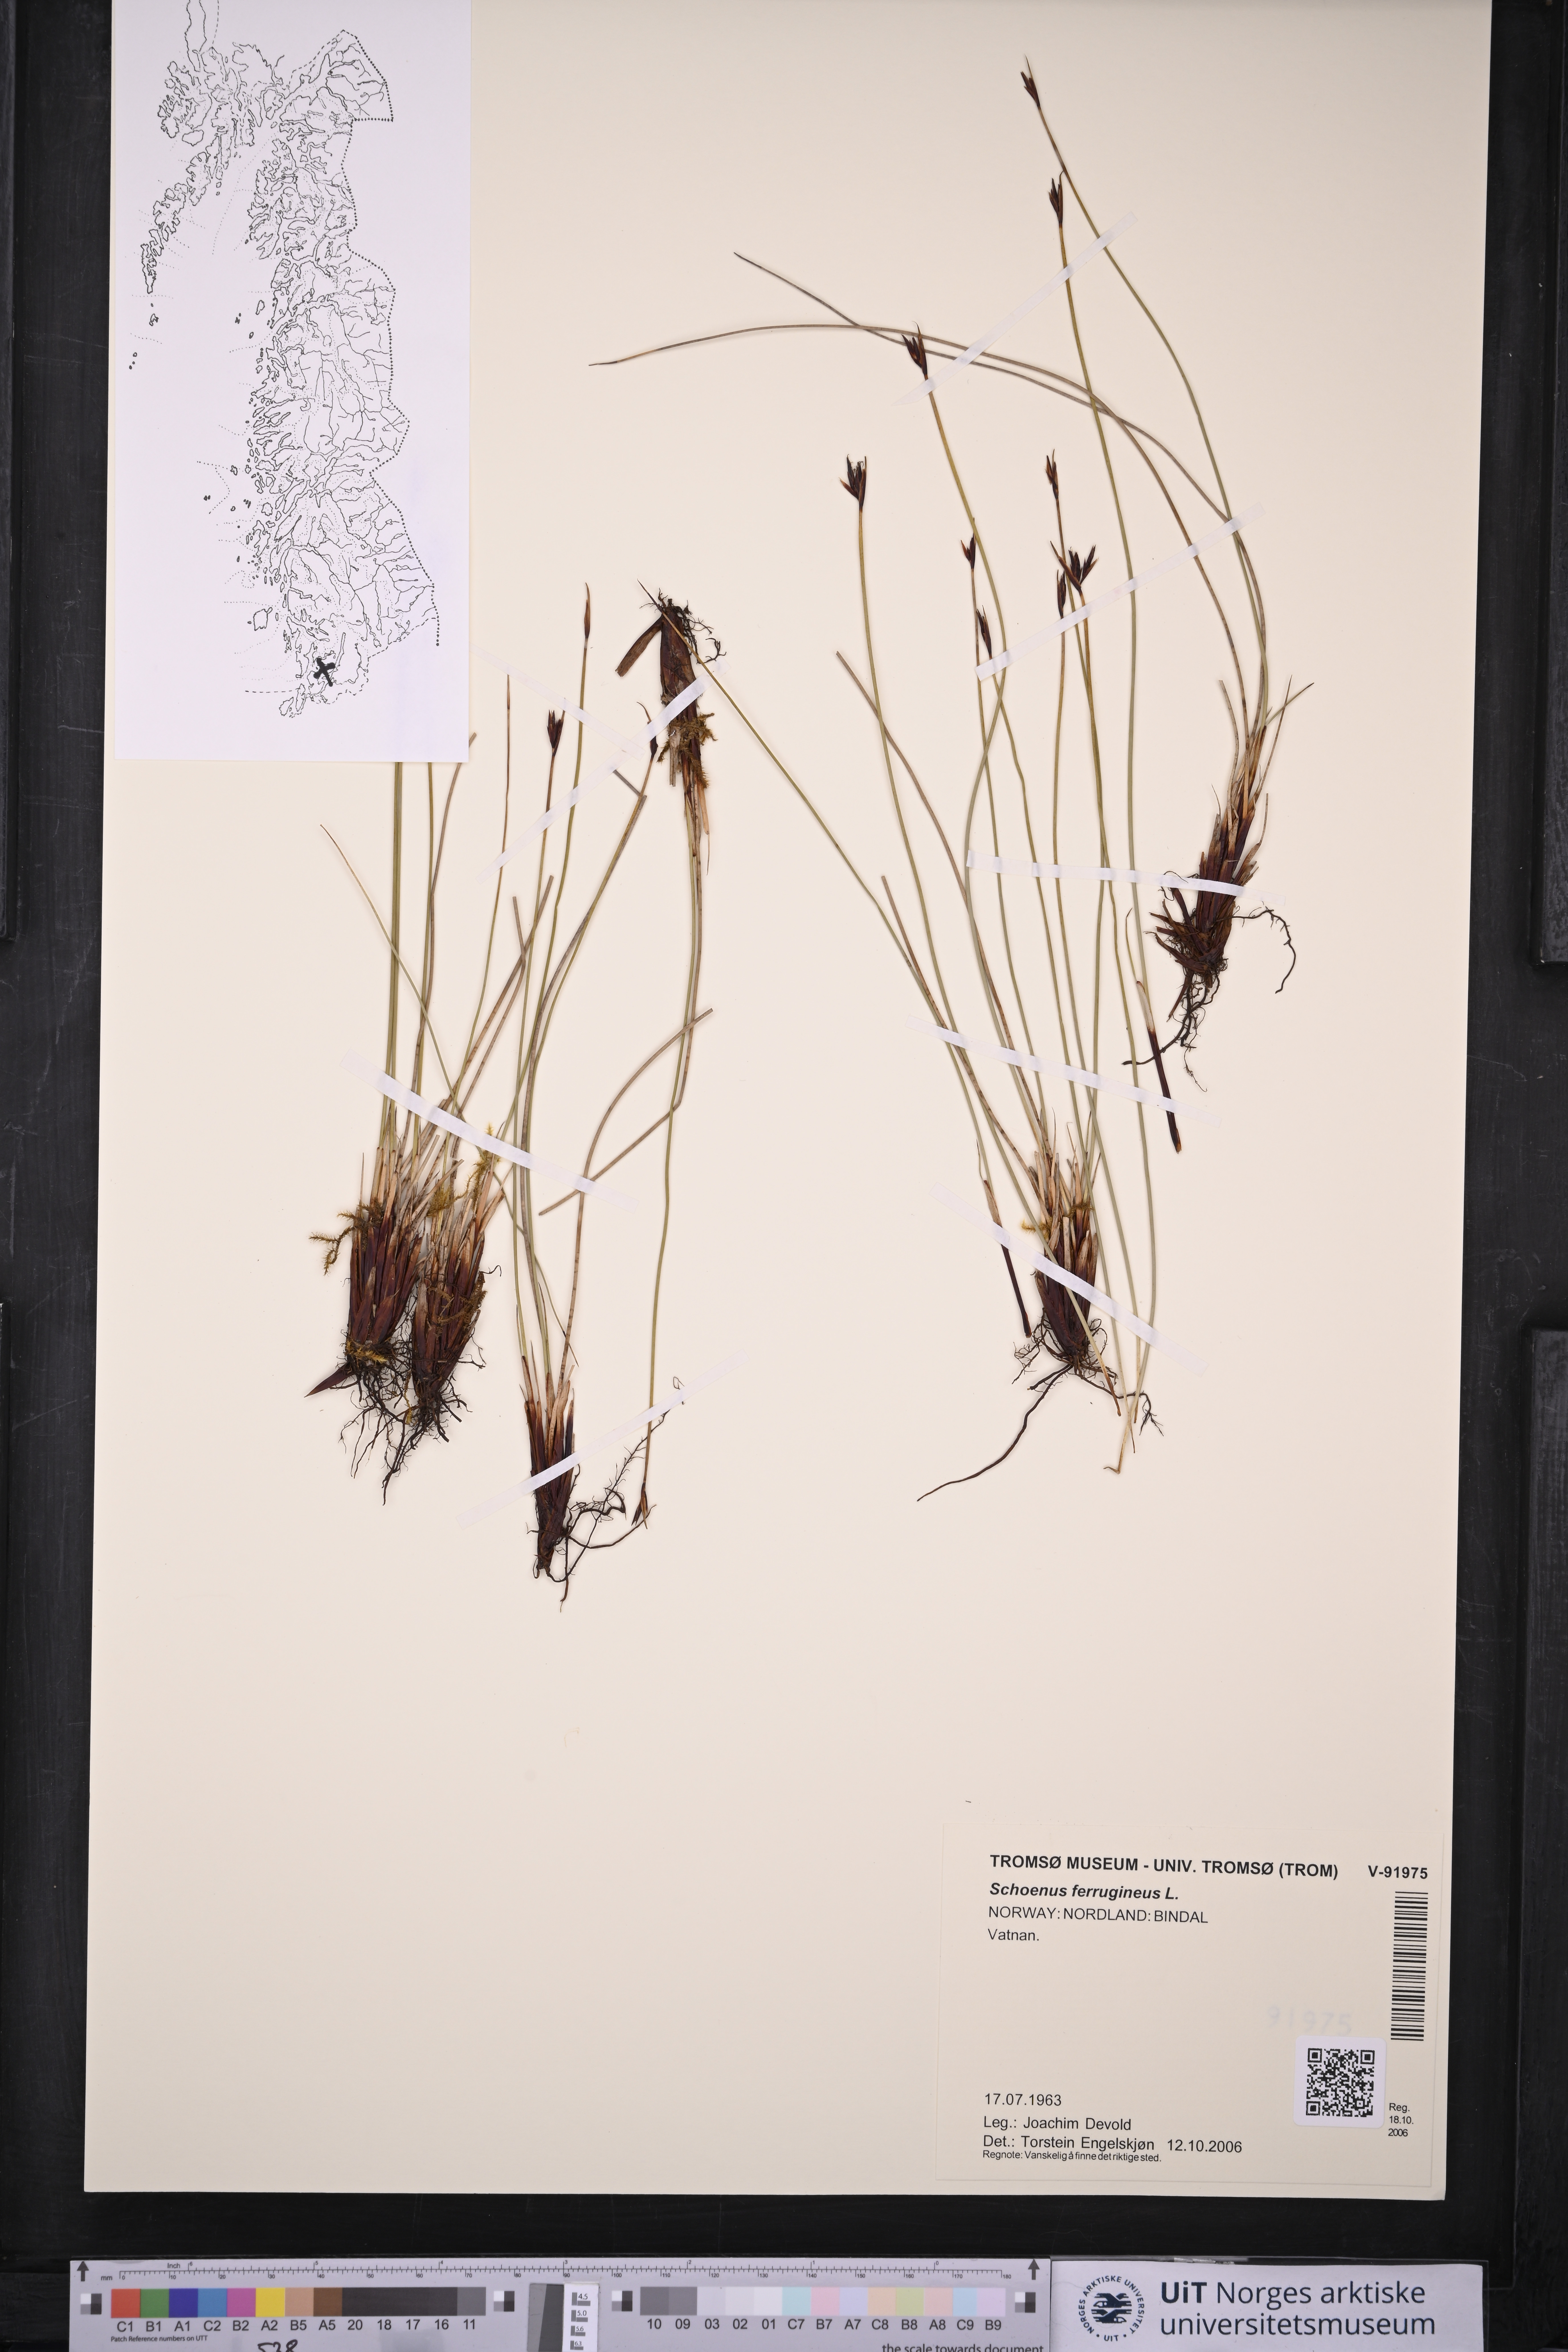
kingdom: Plantae
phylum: Tracheophyta
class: Liliopsida
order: Poales
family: Cyperaceae
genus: Schoenus
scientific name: Schoenus ferrugineus
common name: Brown bog-rush
